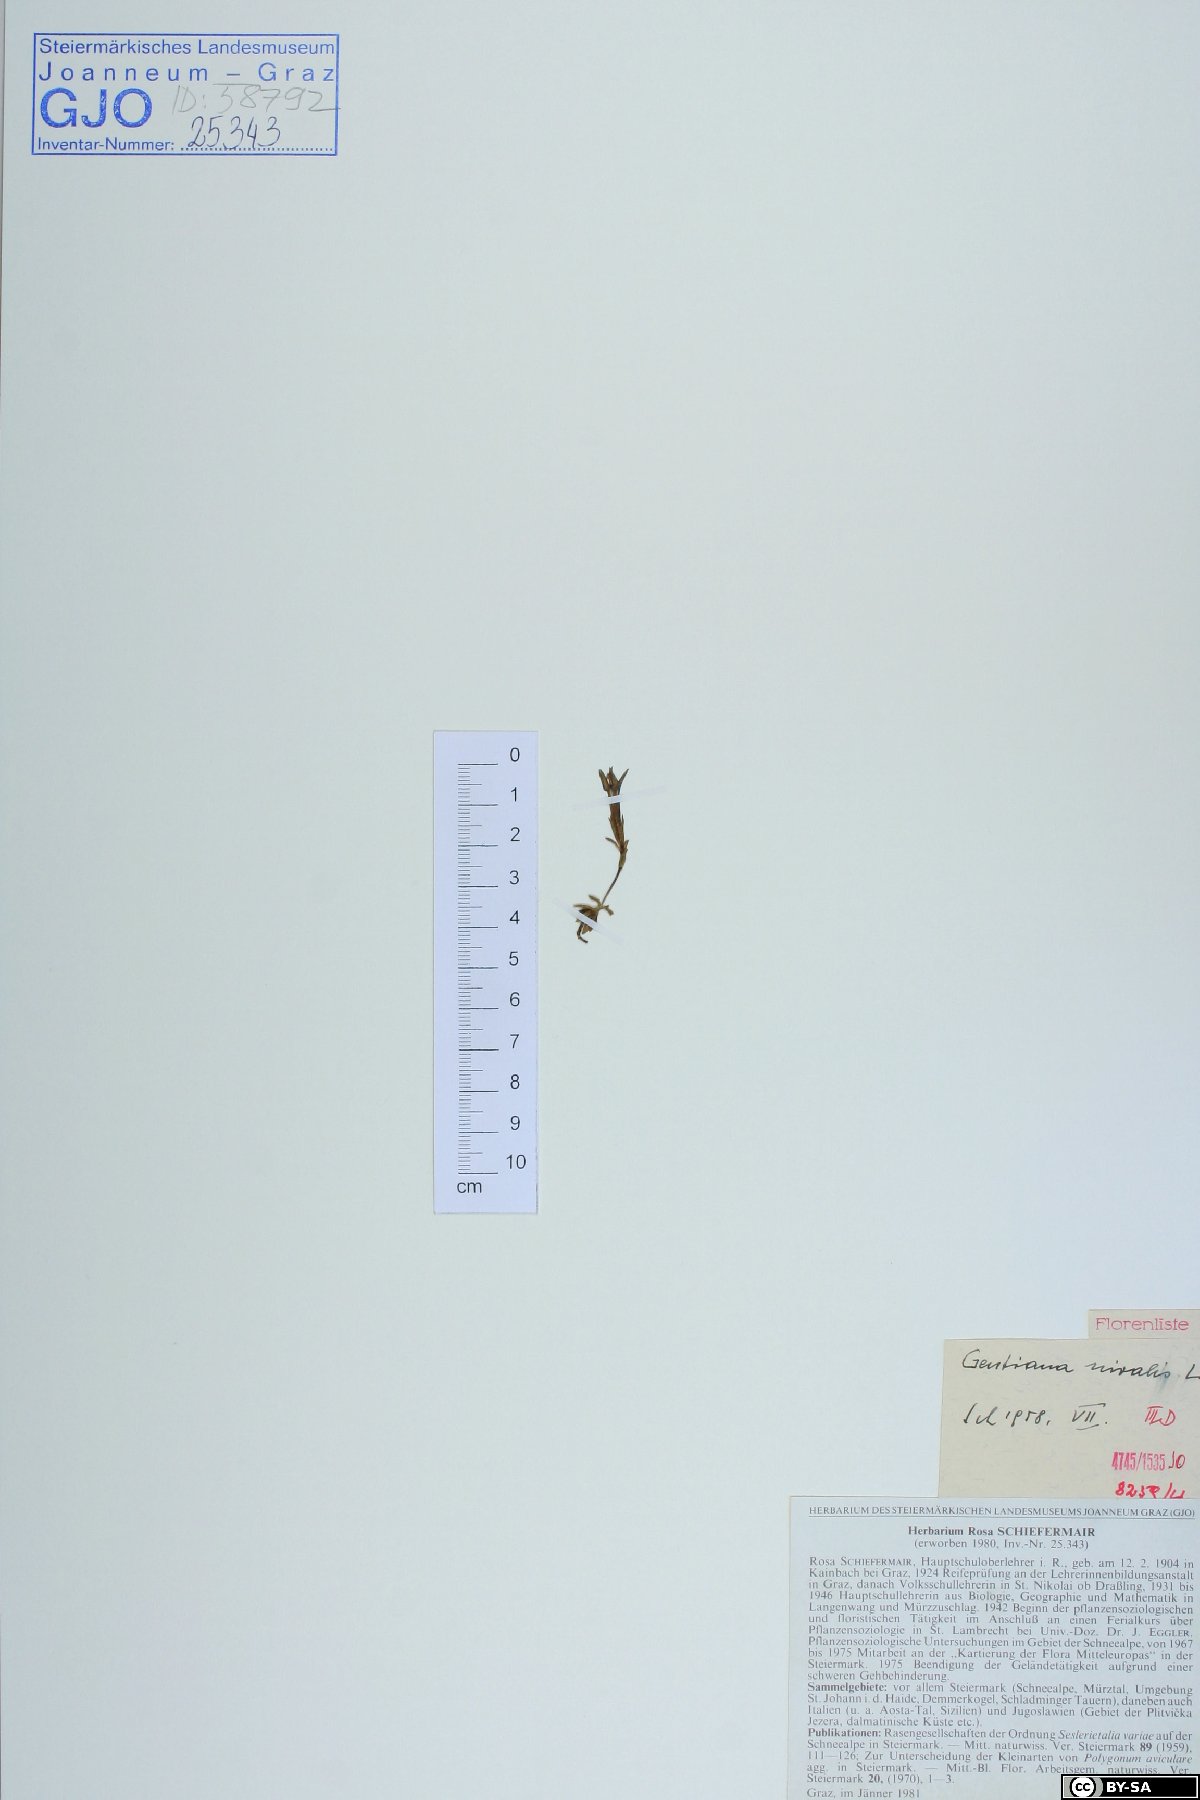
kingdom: Plantae
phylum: Tracheophyta
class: Magnoliopsida
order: Gentianales
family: Gentianaceae
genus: Gentiana
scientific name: Gentiana nivalis
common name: Alpine gentian
